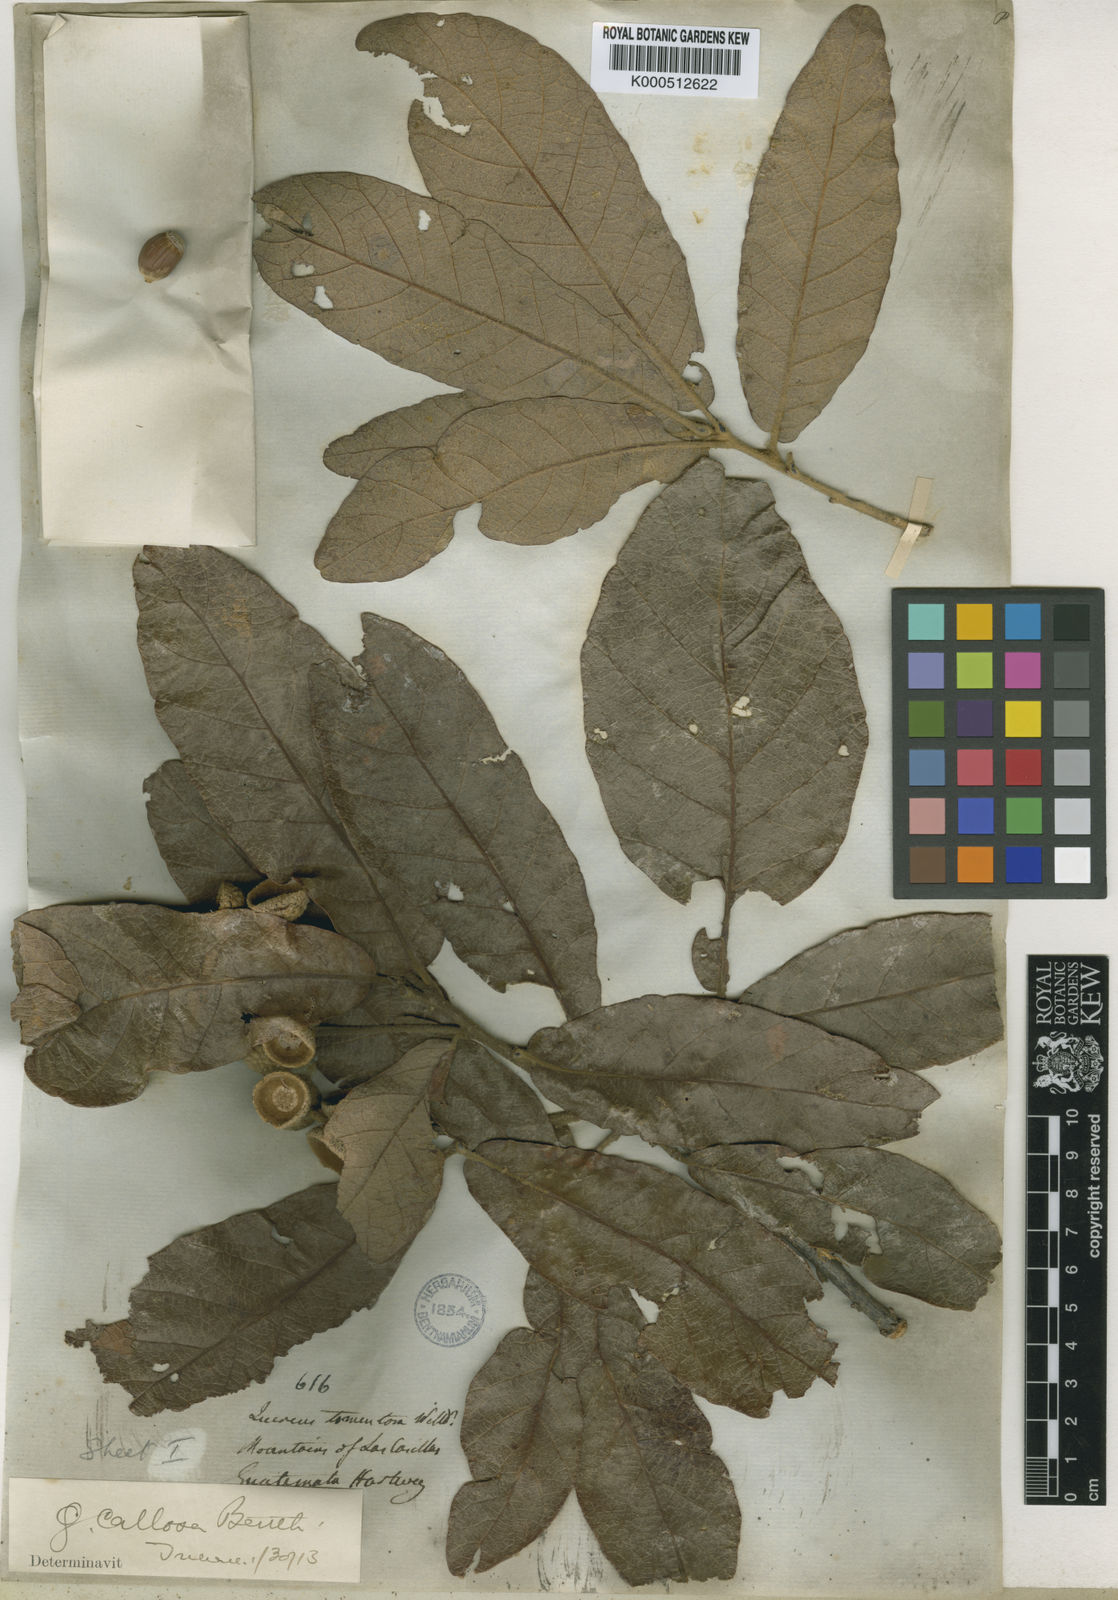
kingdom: Plantae
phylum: Tracheophyta
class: Magnoliopsida
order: Fagales
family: Fagaceae
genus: Quercus
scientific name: Quercus peduncularis
